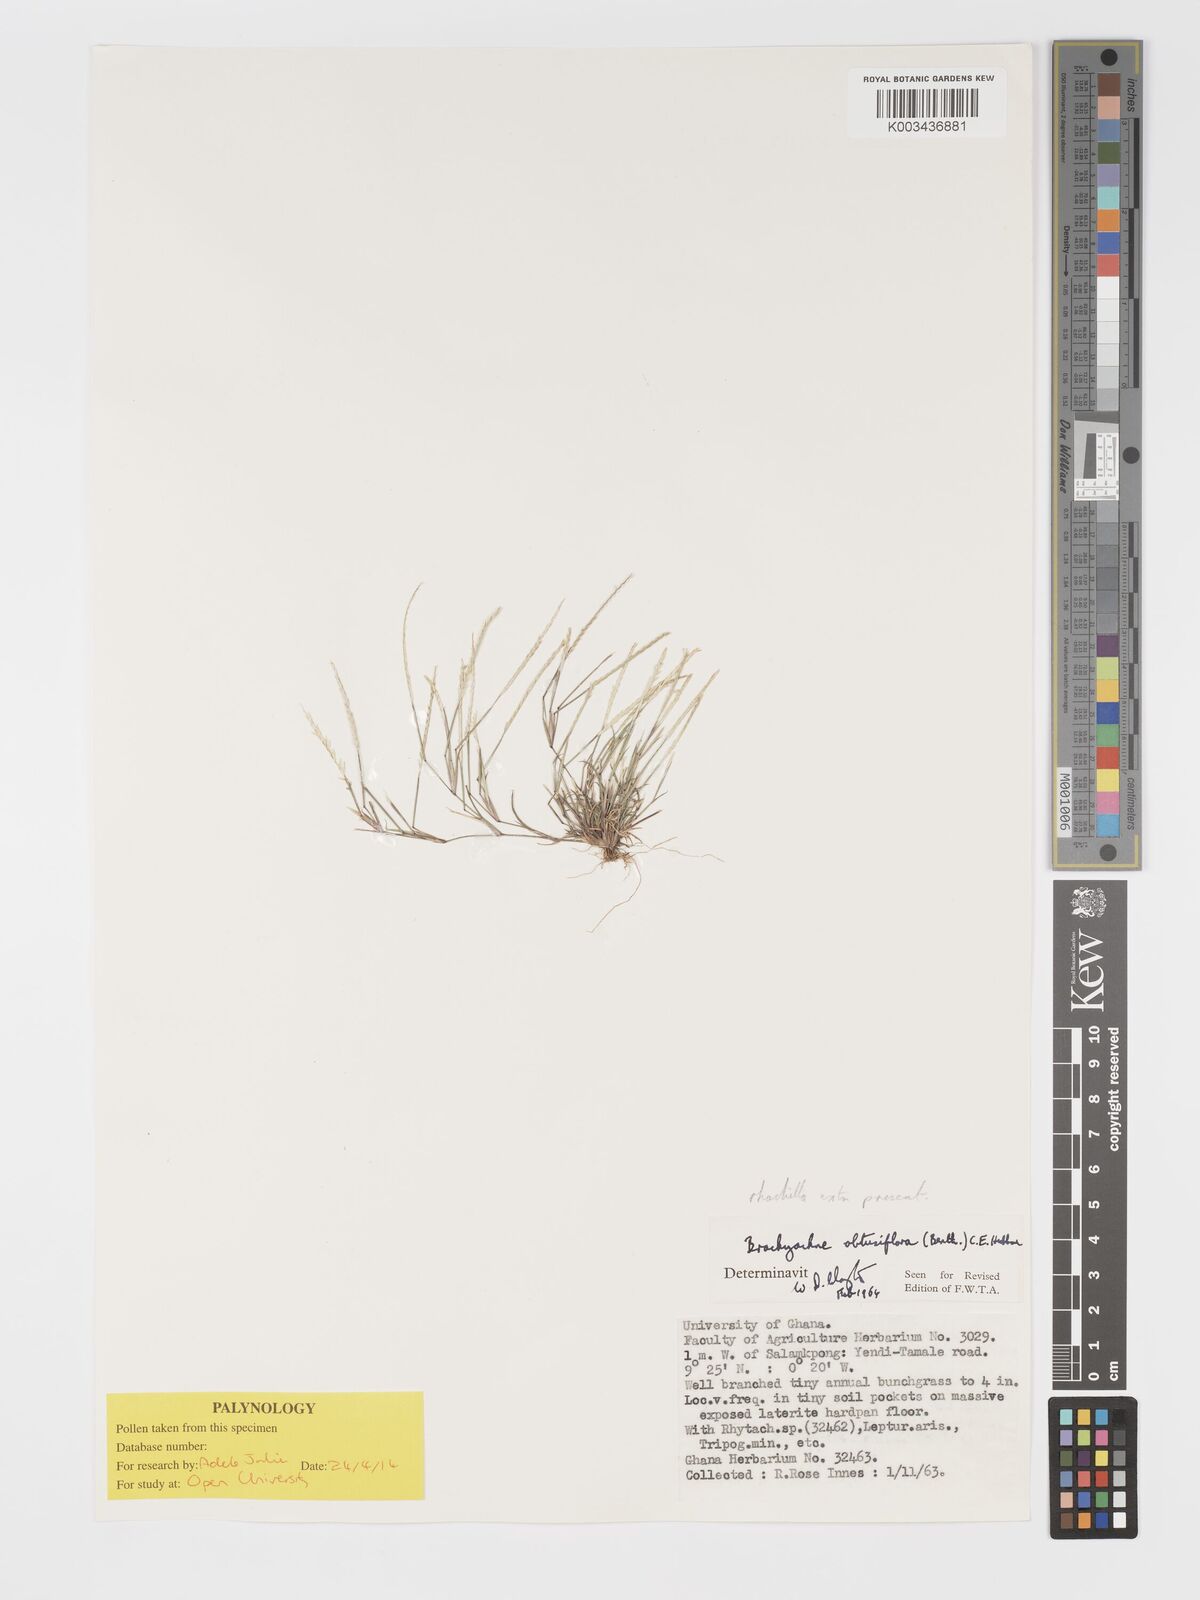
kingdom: Plantae
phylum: Tracheophyta
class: Liliopsida
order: Poales
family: Poaceae
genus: Micrachne
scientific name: Micrachne obtusiflora
